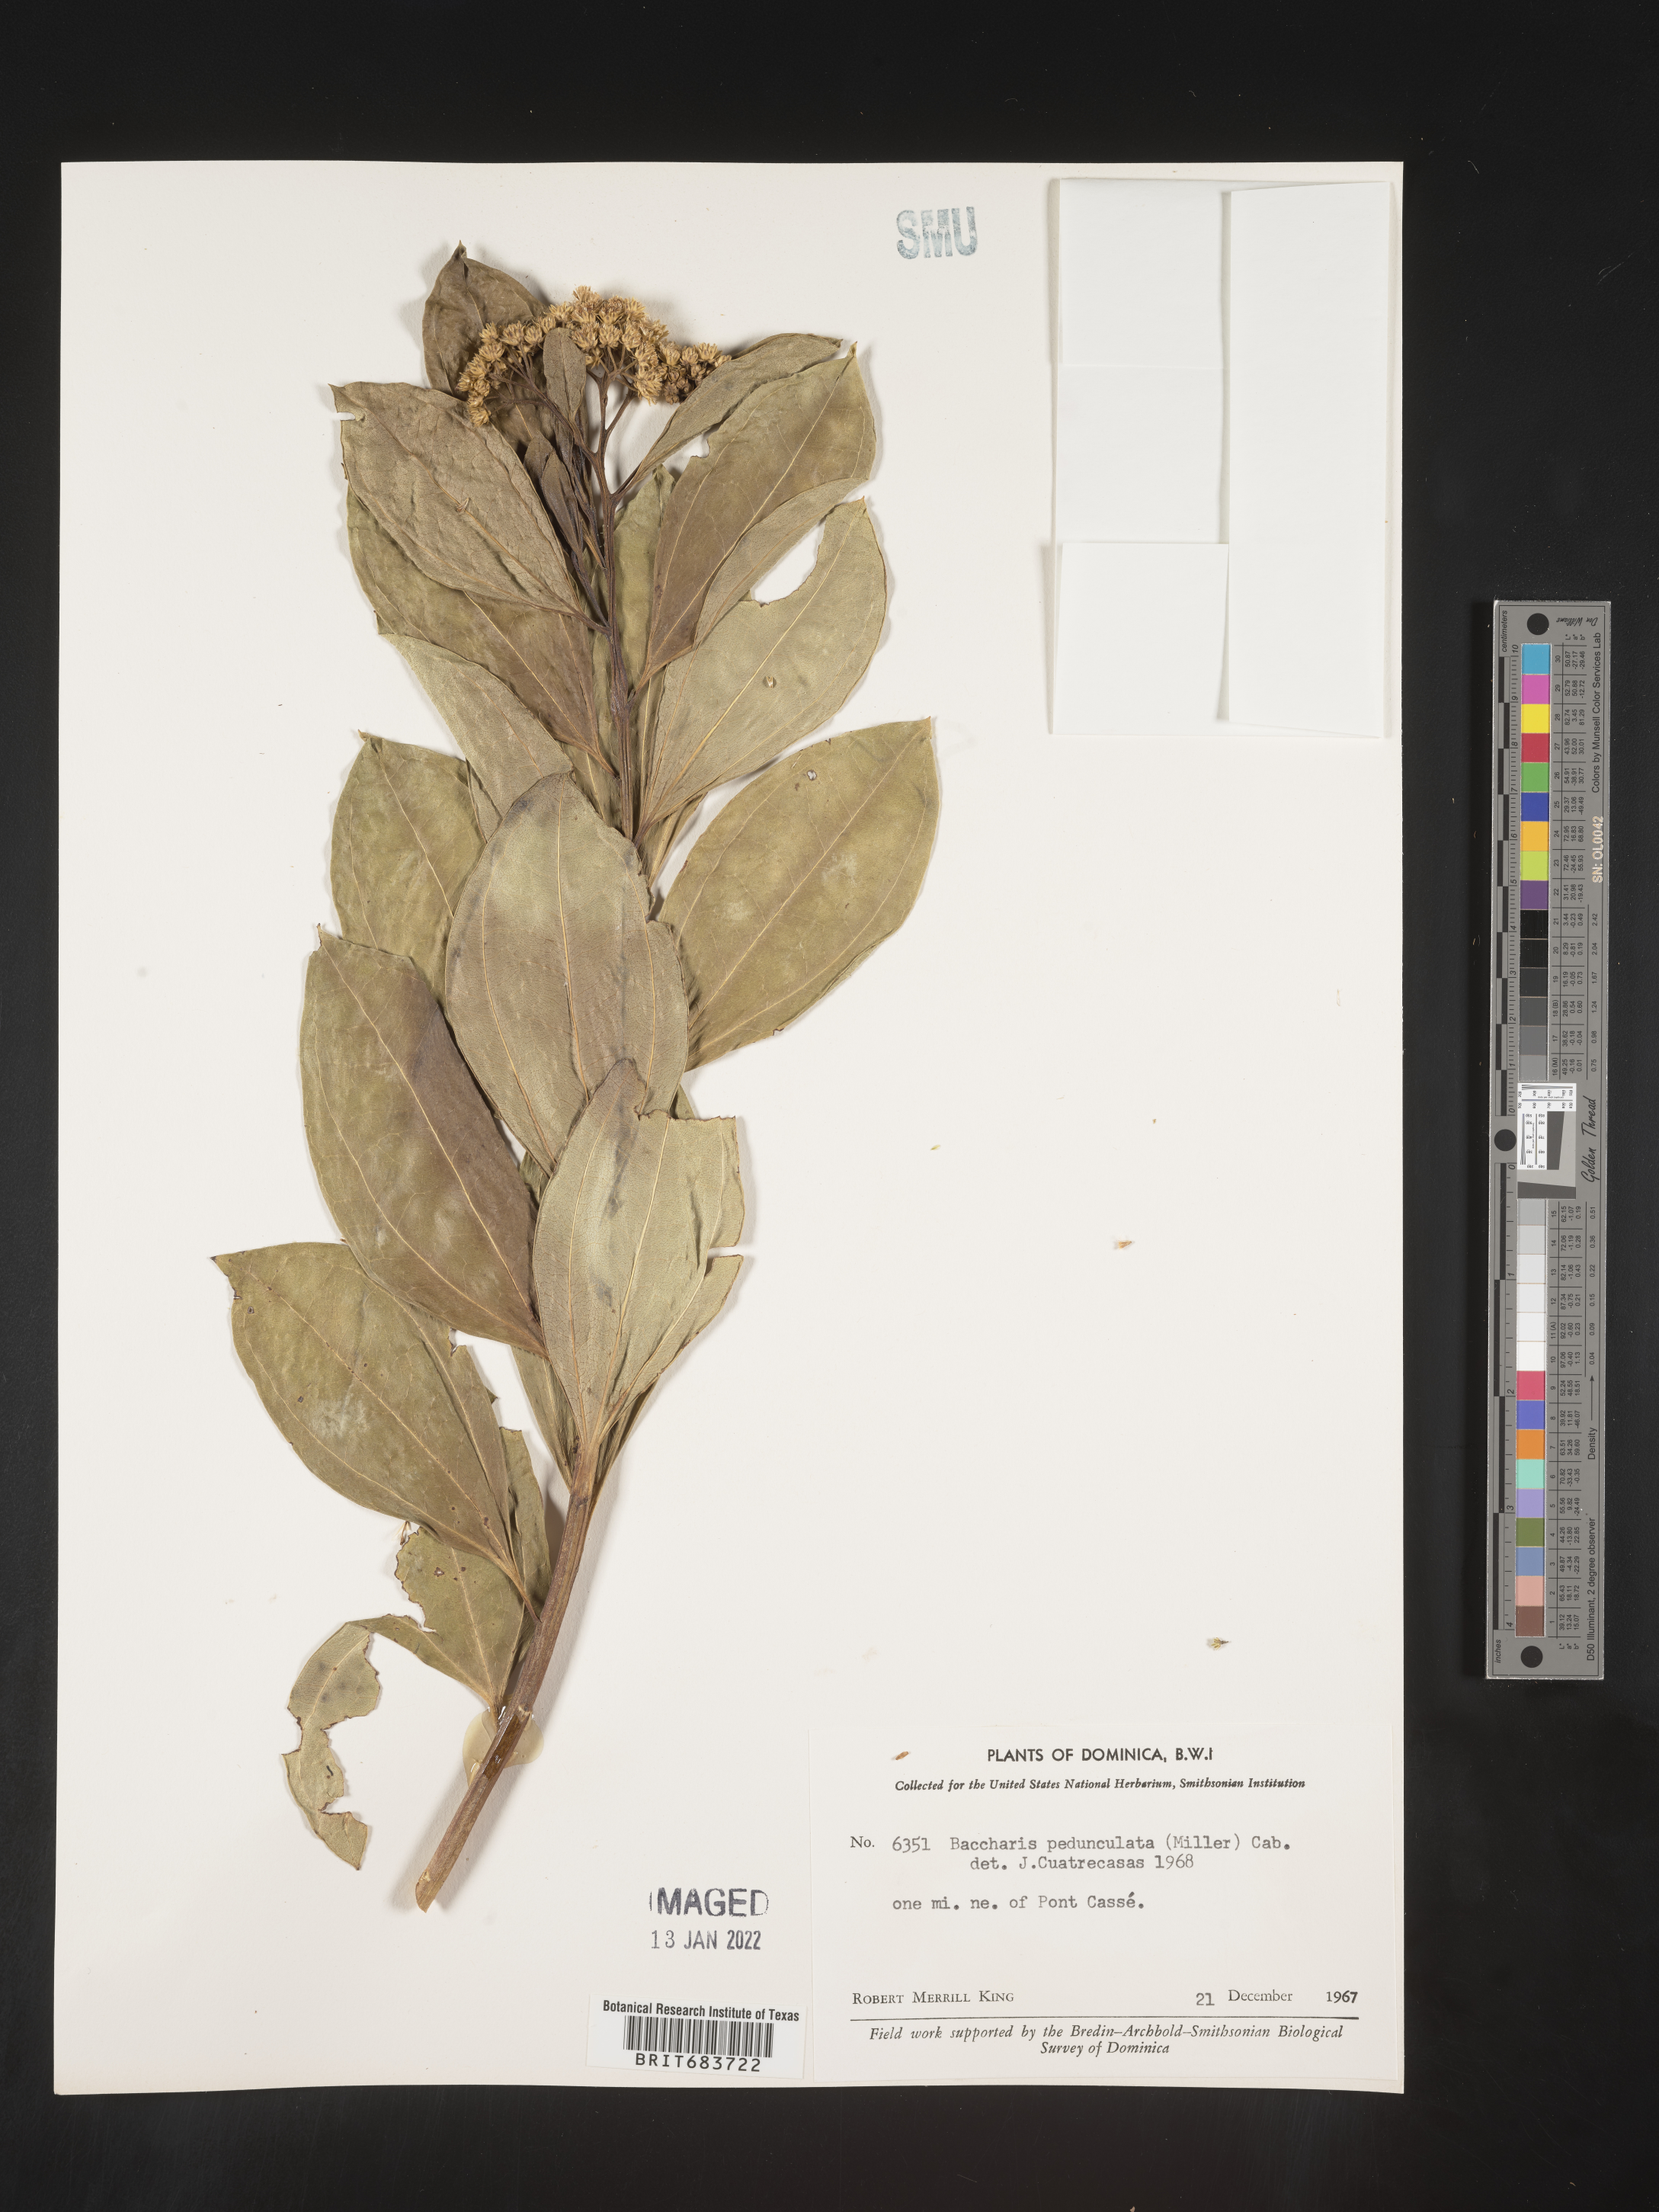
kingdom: Plantae
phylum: Tracheophyta
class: Magnoliopsida
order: Asterales
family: Asteraceae
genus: Baccharis
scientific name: Baccharis
